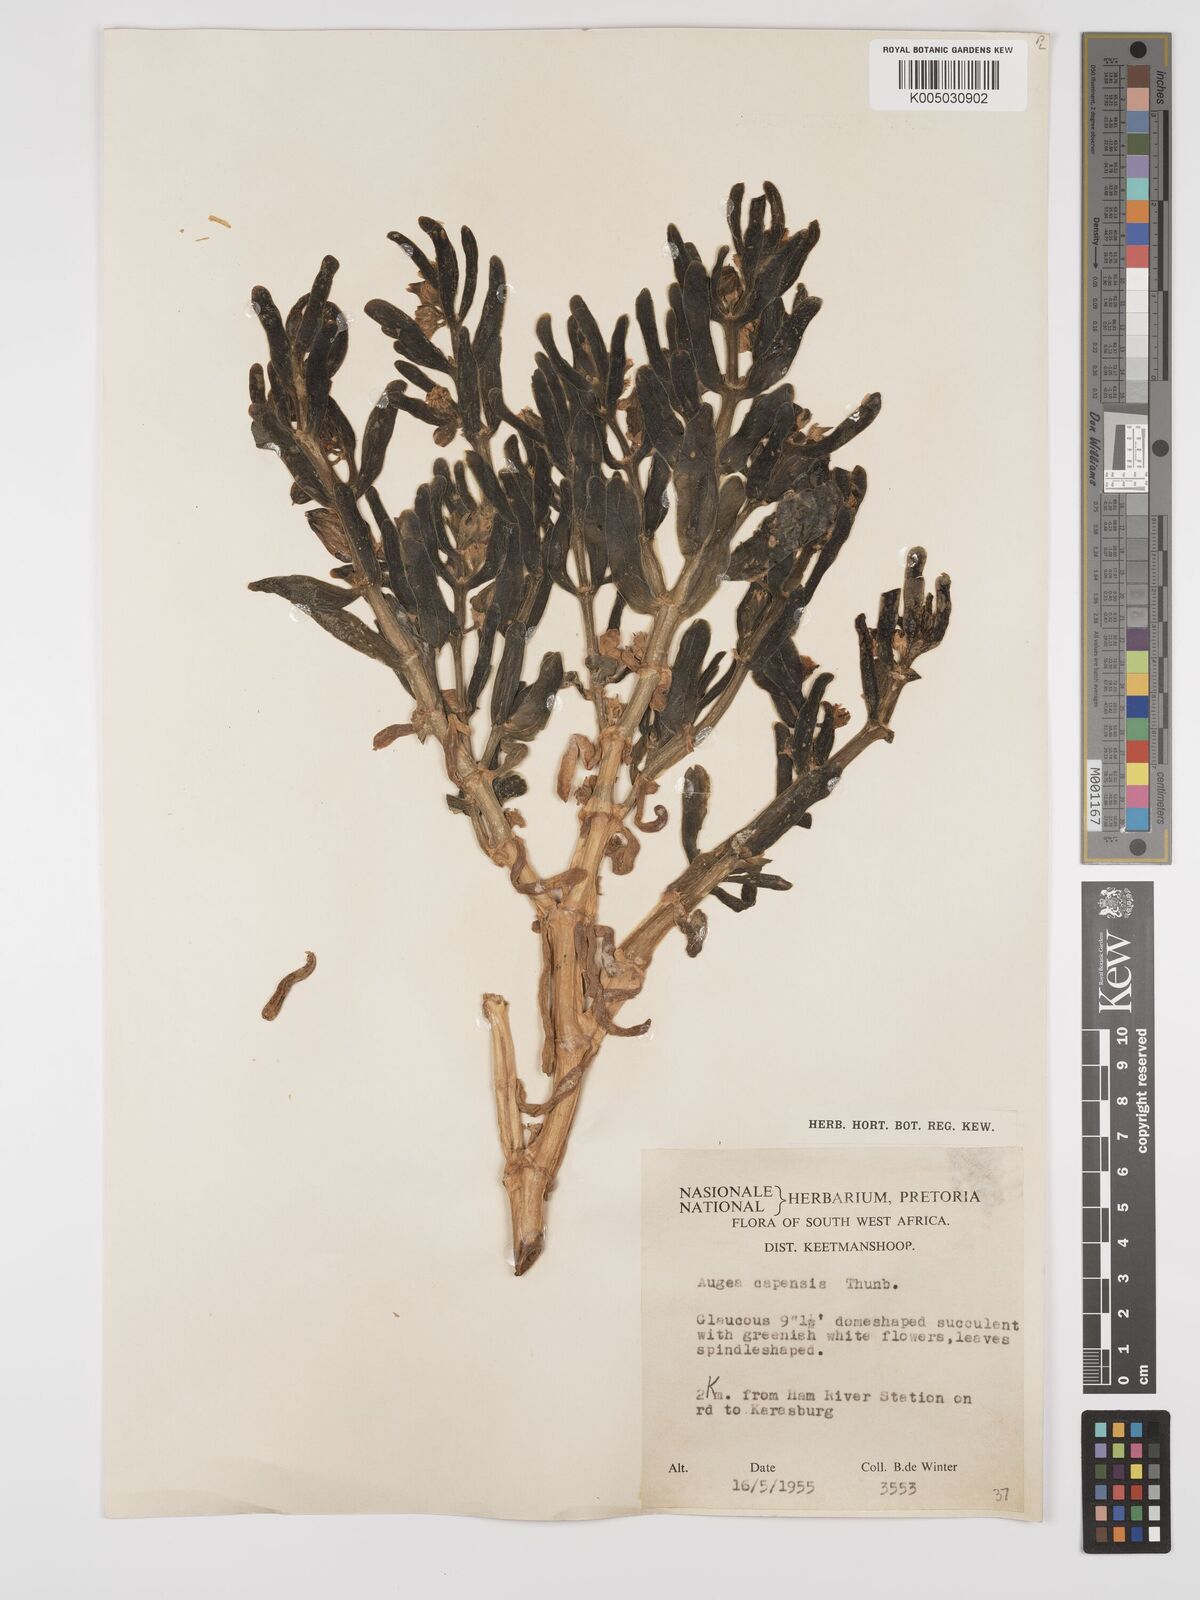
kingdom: Plantae
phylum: Tracheophyta
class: Magnoliopsida
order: Zygophyllales
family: Zygophyllaceae
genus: Augea
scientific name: Augea capensis
